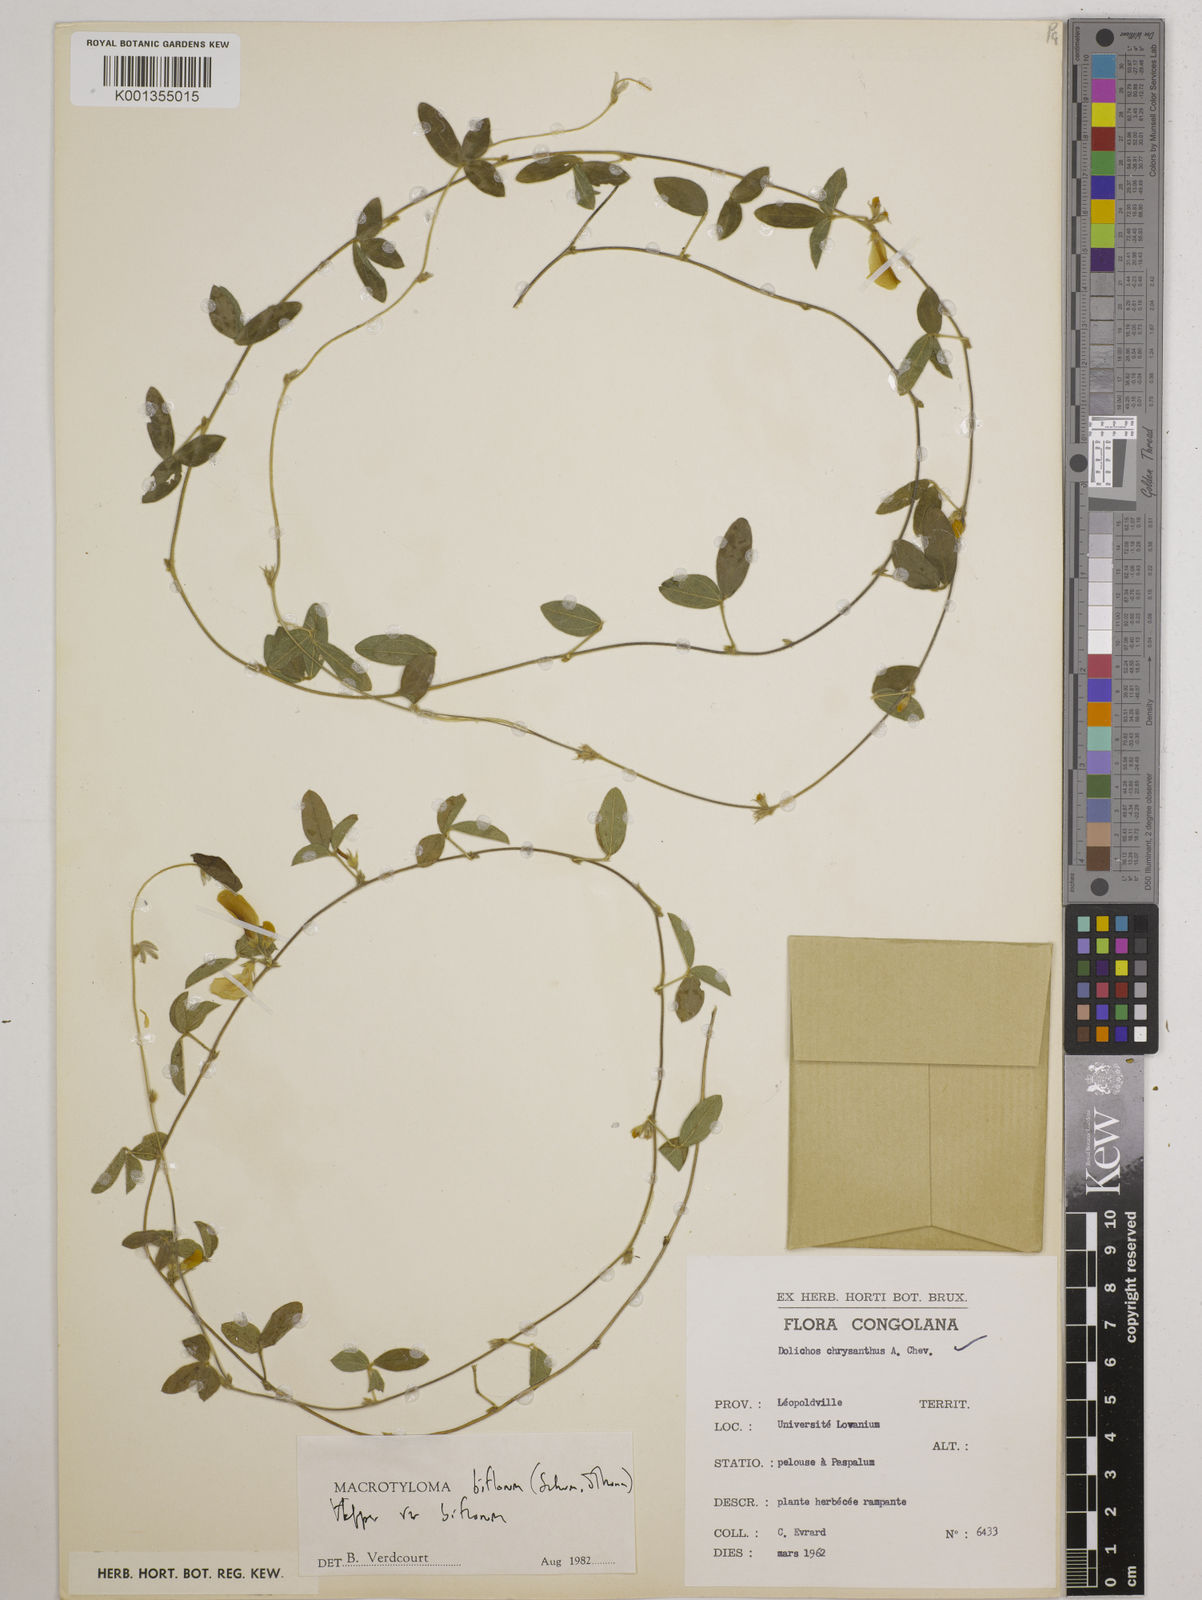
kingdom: Plantae
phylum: Tracheophyta
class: Magnoliopsida
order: Fabales
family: Fabaceae
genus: Macrotyloma
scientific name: Macrotyloma biflorum
